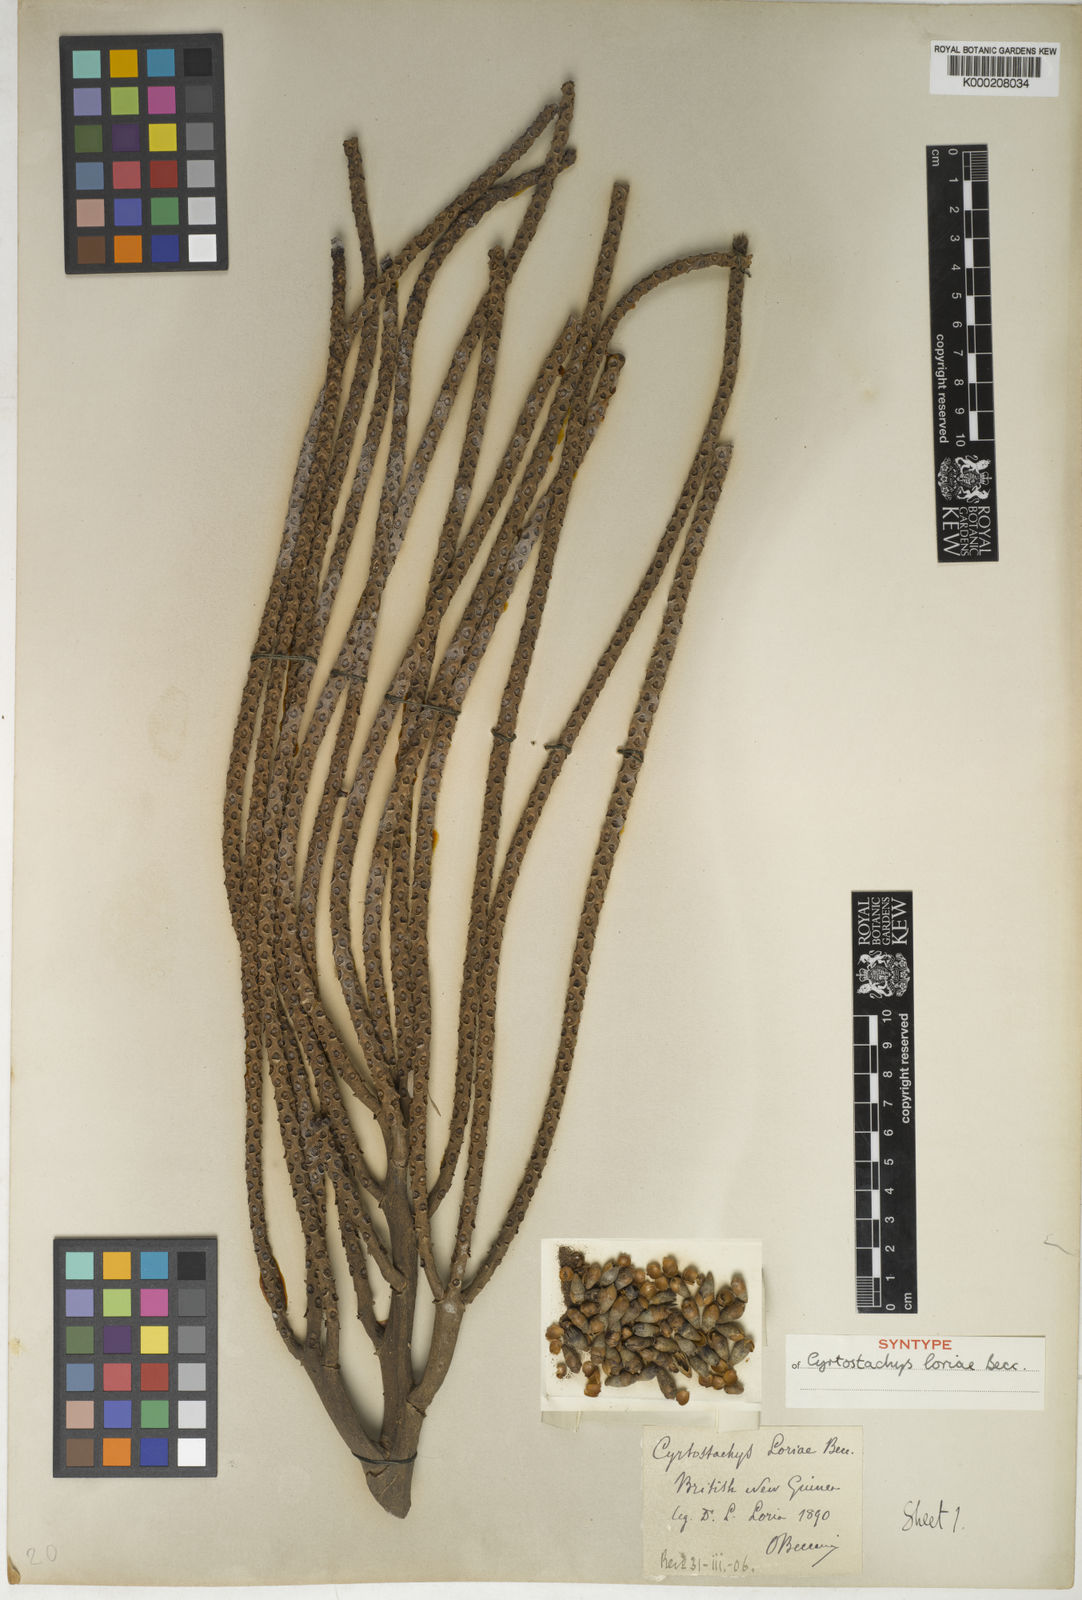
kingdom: Plantae
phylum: Tracheophyta
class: Liliopsida
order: Arecales
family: Arecaceae
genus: Cyrtostachys
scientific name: Cyrtostachys loriae
